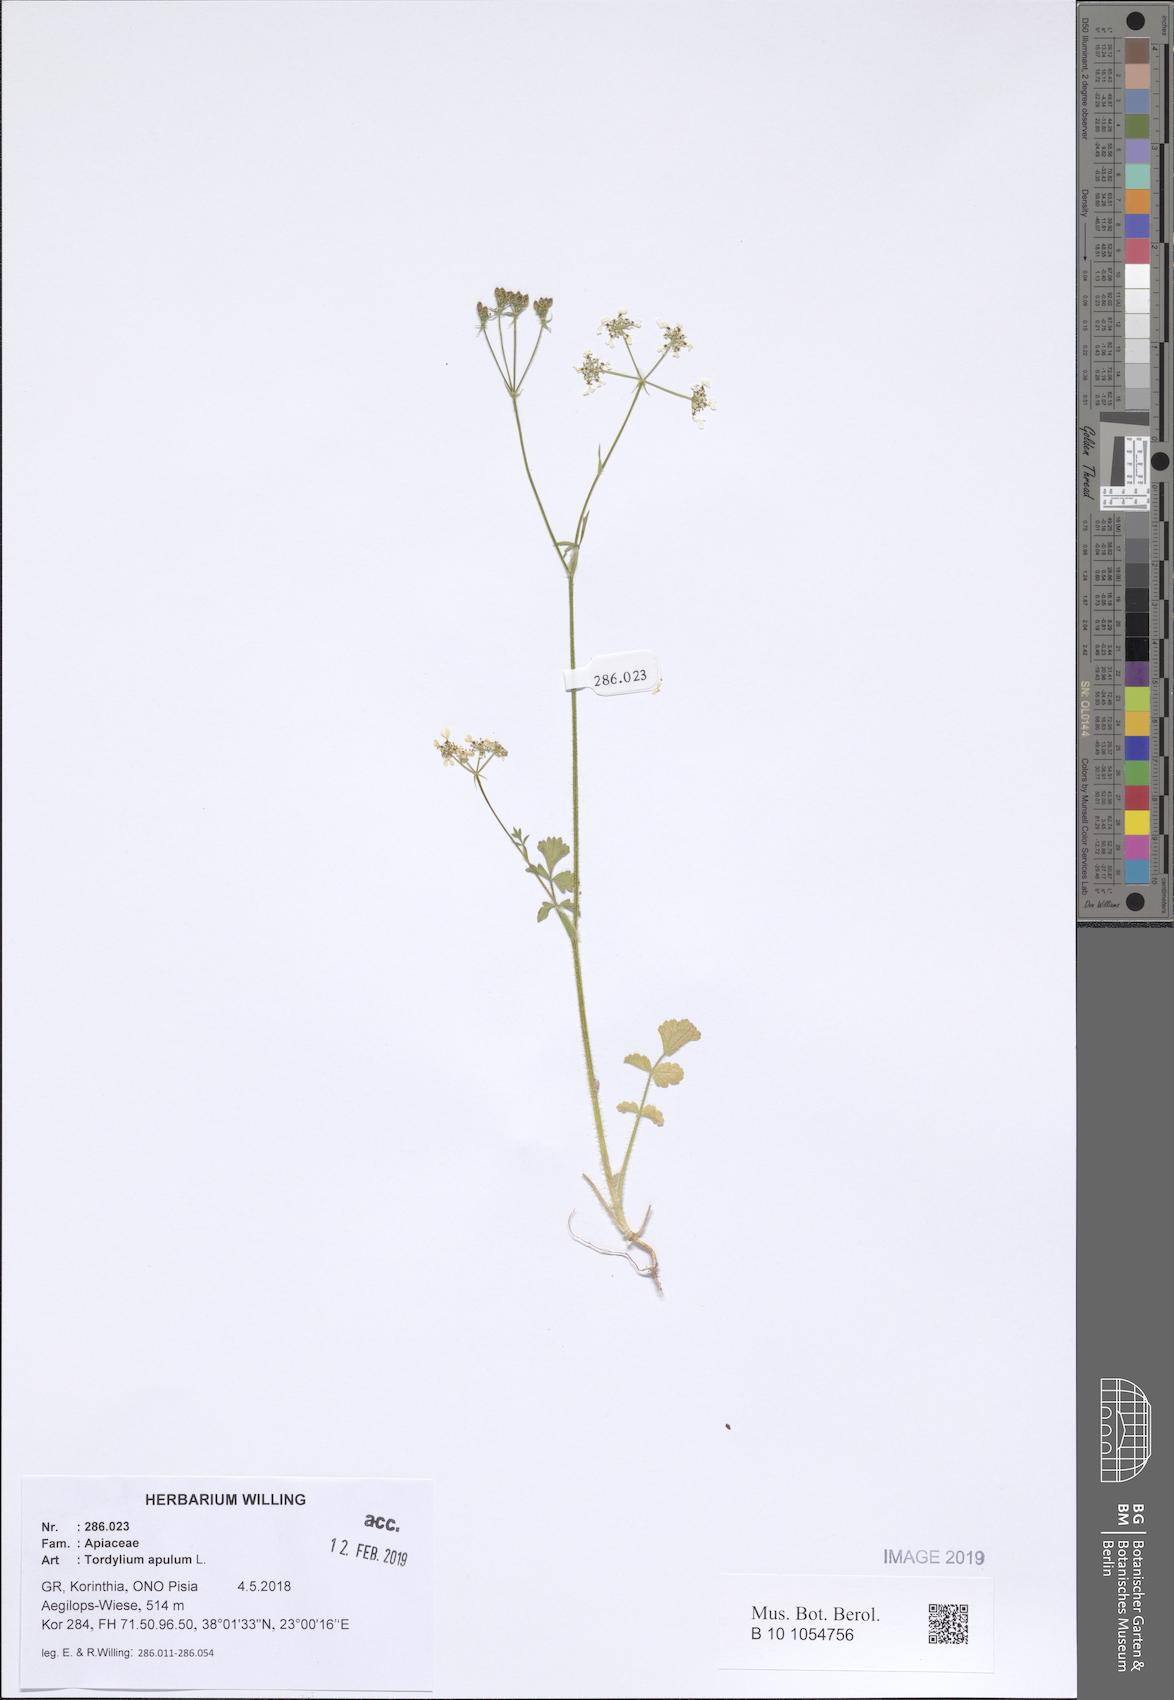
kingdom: Plantae
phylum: Tracheophyta
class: Magnoliopsida
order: Apiales
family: Apiaceae
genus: Tordylium
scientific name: Tordylium apulum
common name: Mediterranean hartwort
